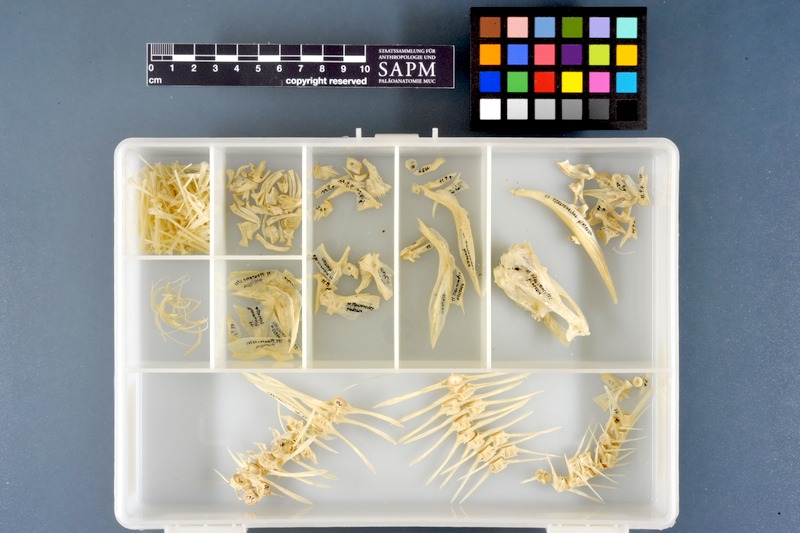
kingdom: Animalia
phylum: Chordata
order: Pleuronectiformes
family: Pleuronectidae
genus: Pleuronectes
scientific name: Pleuronectes platessa
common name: Plaice
